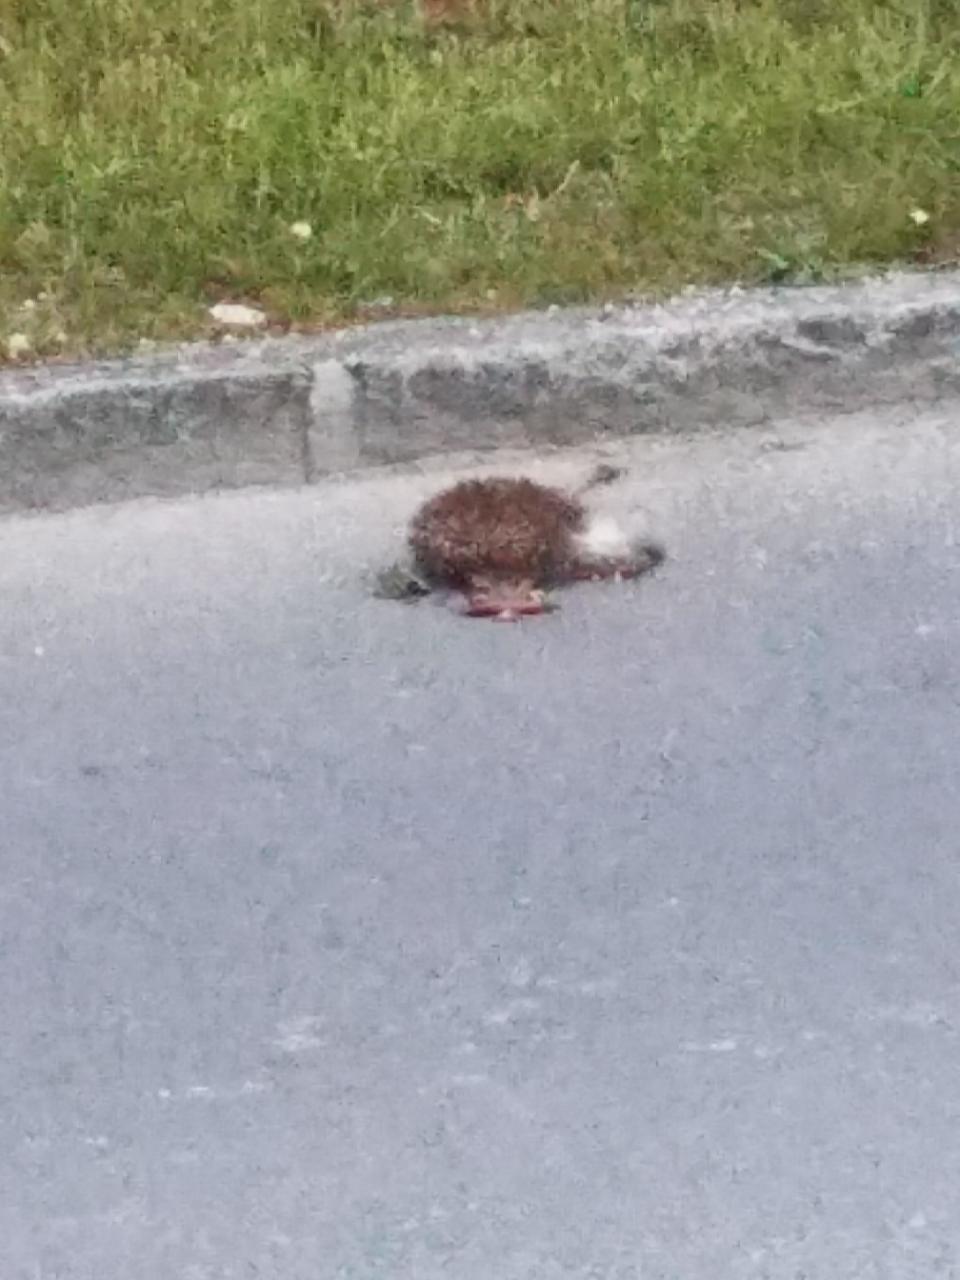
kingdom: Animalia
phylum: Chordata
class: Mammalia
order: Erinaceomorpha
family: Erinaceidae
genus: Erinaceus
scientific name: Erinaceus
